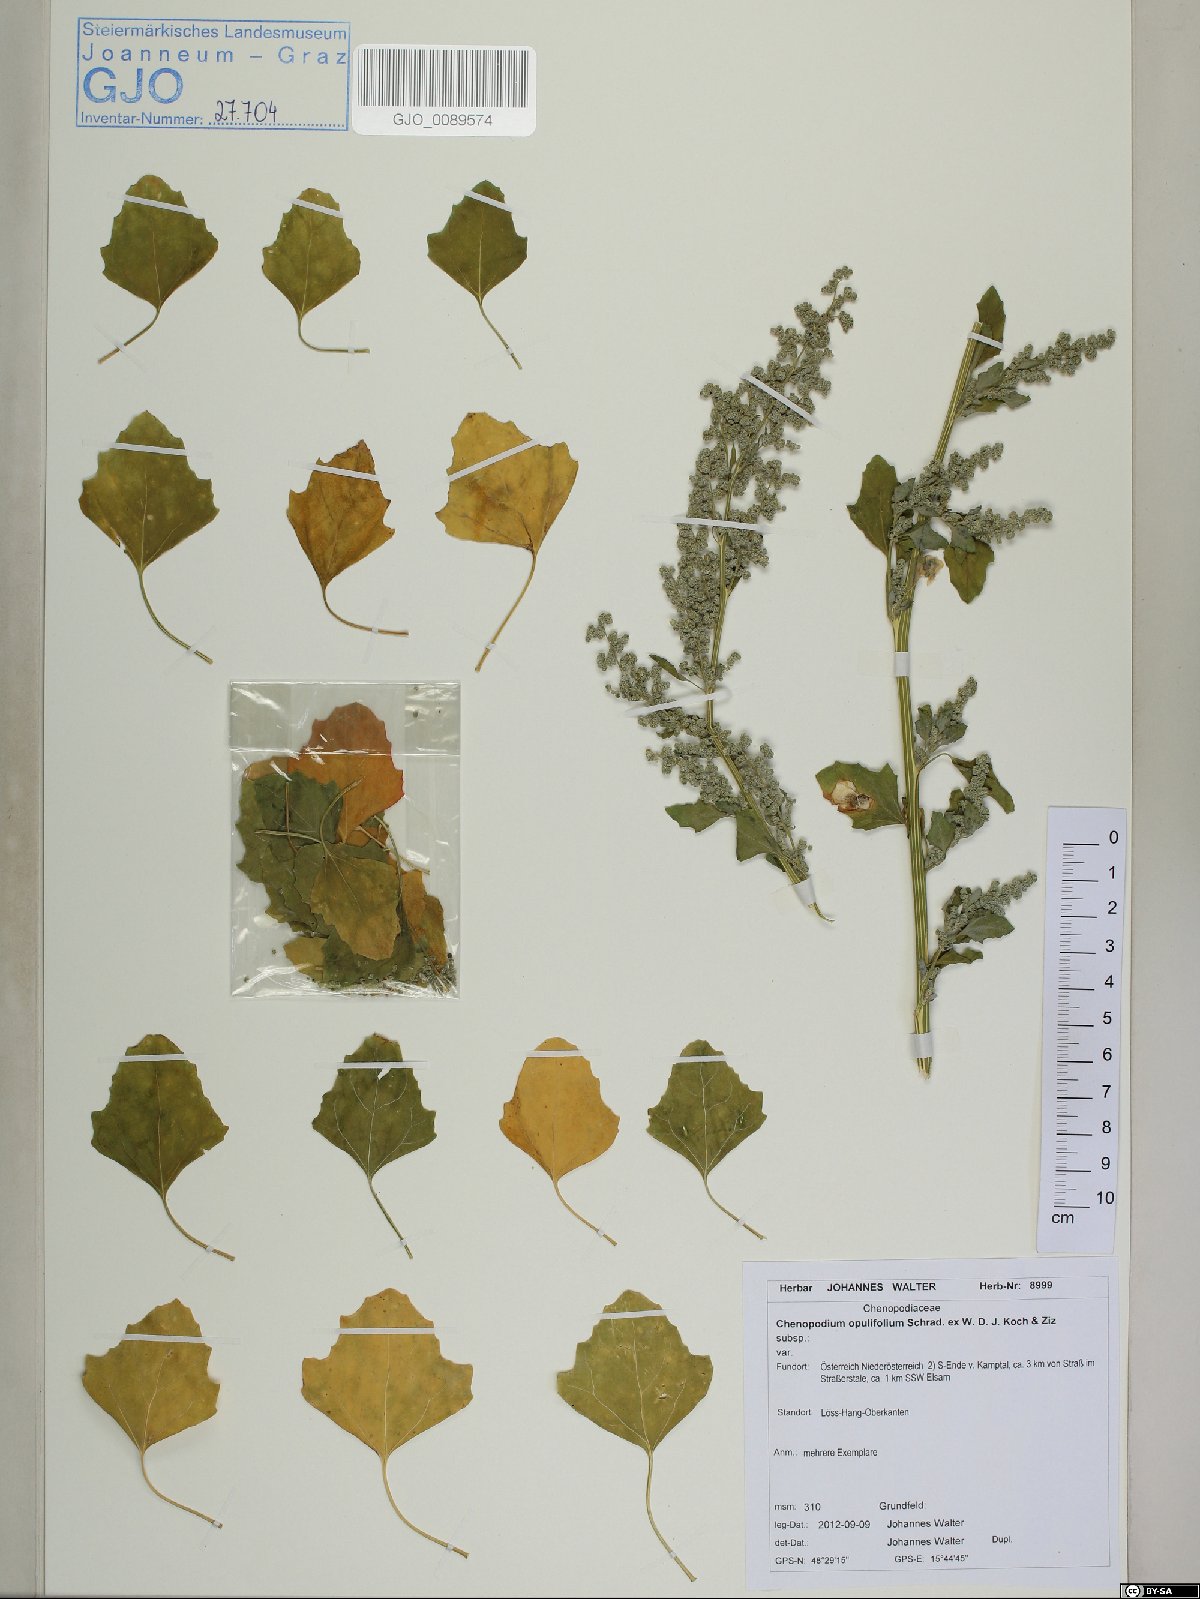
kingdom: Plantae
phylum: Tracheophyta
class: Magnoliopsida
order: Caryophyllales
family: Amaranthaceae
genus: Chenopodium
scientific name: Chenopodium opulifolium
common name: Grey goosefoot
